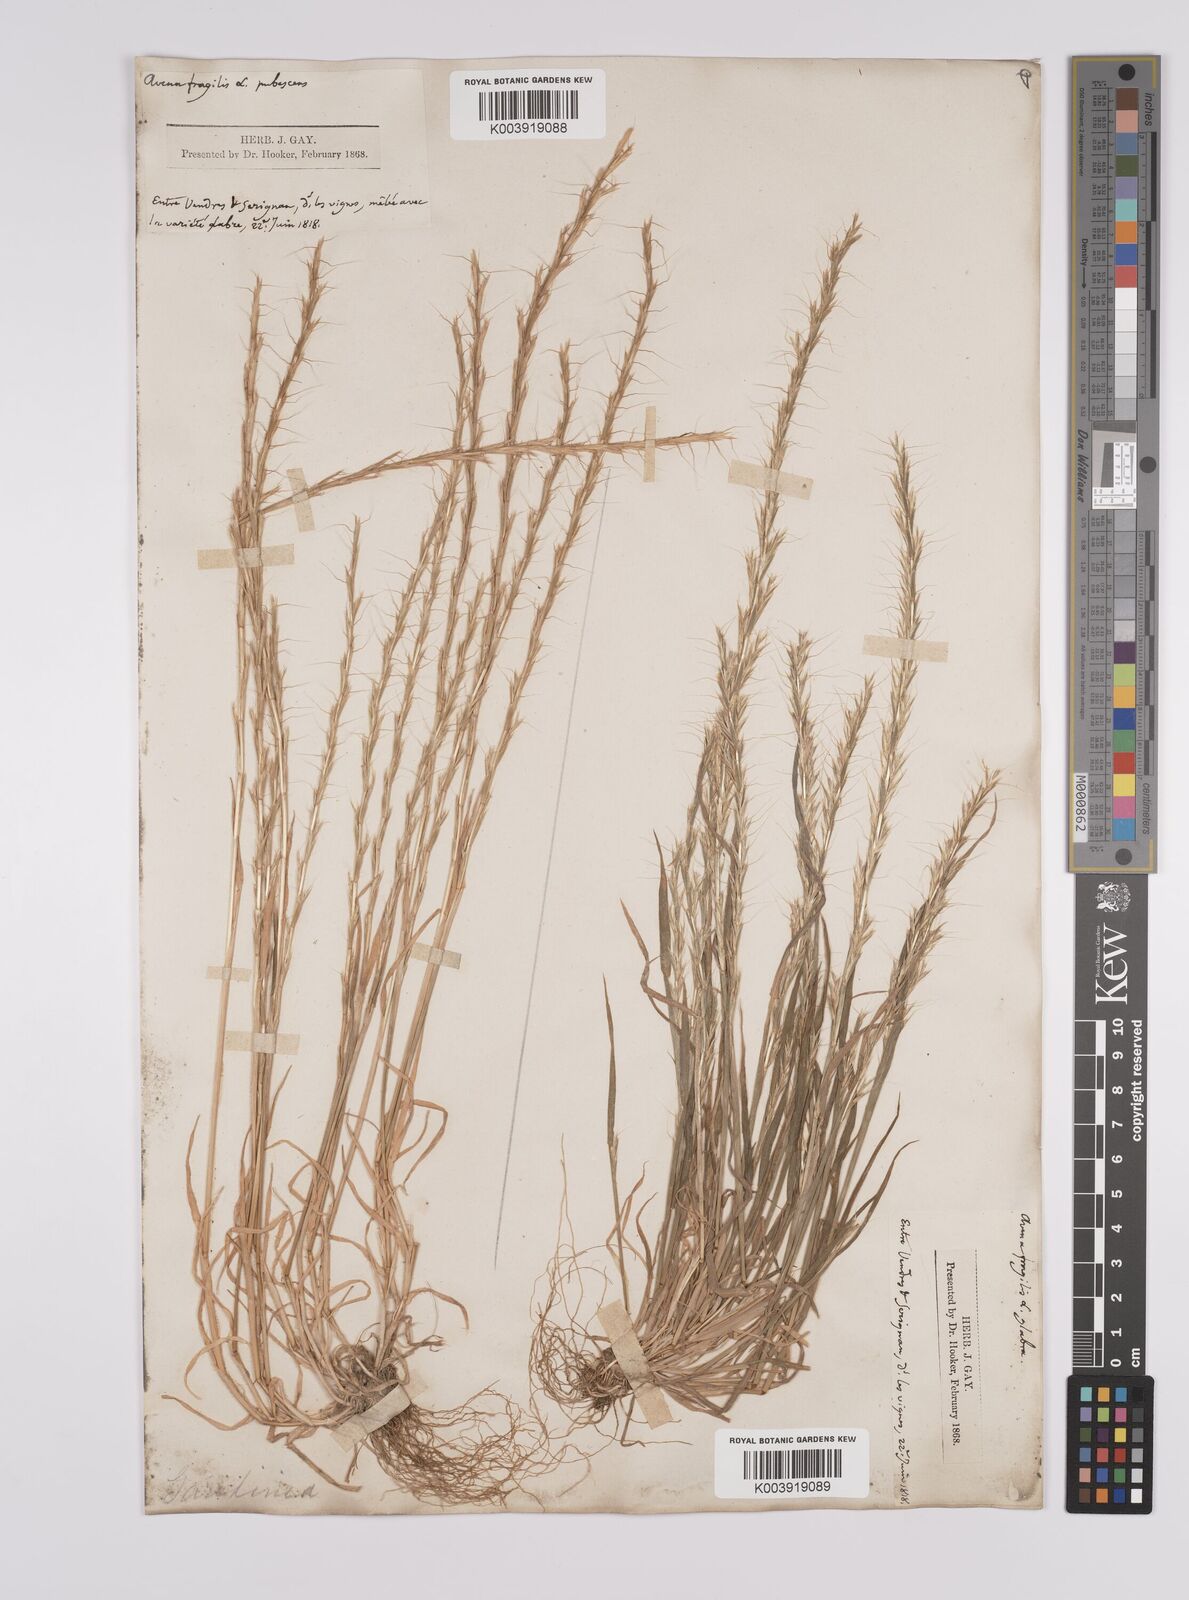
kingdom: Plantae
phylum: Tracheophyta
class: Liliopsida
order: Poales
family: Poaceae
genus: Gaudinia
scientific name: Gaudinia fragilis
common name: French oat-grass
